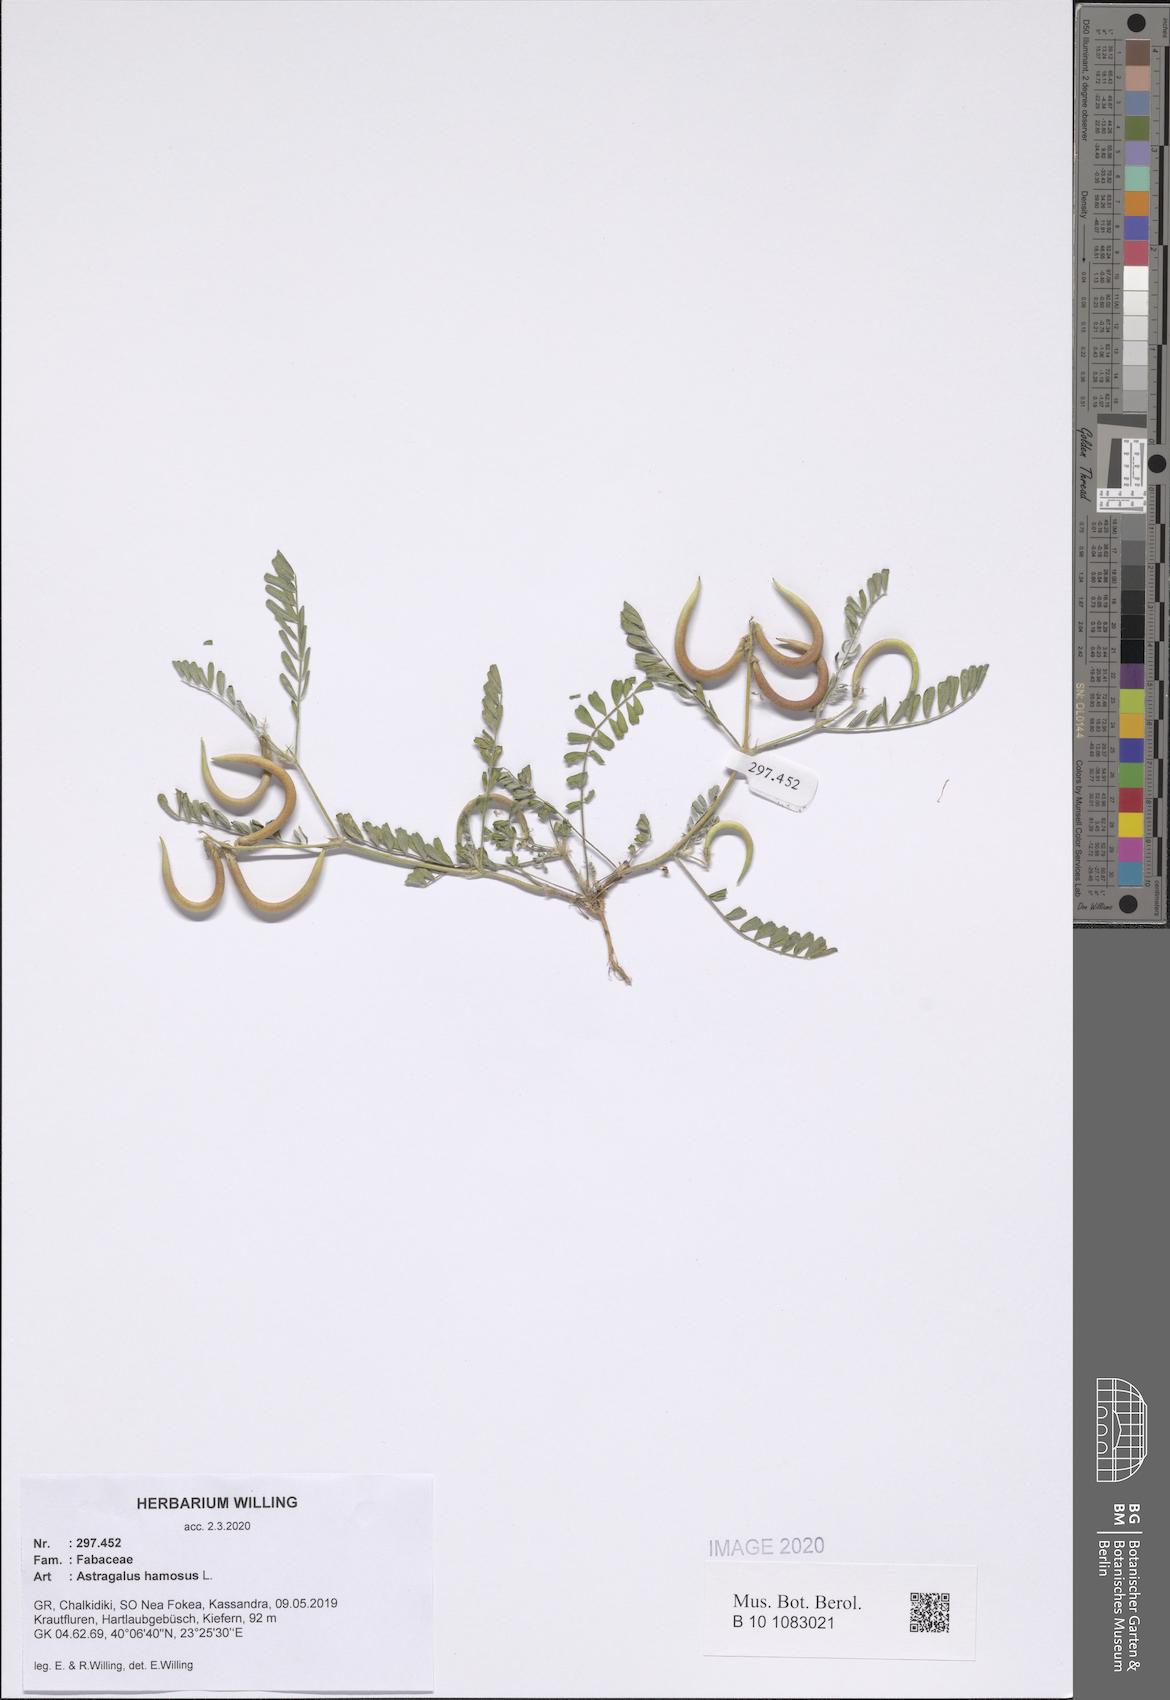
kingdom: Plantae
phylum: Tracheophyta
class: Magnoliopsida
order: Fabales
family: Fabaceae
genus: Astragalus
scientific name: Astragalus hamosus
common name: European milkvetch
